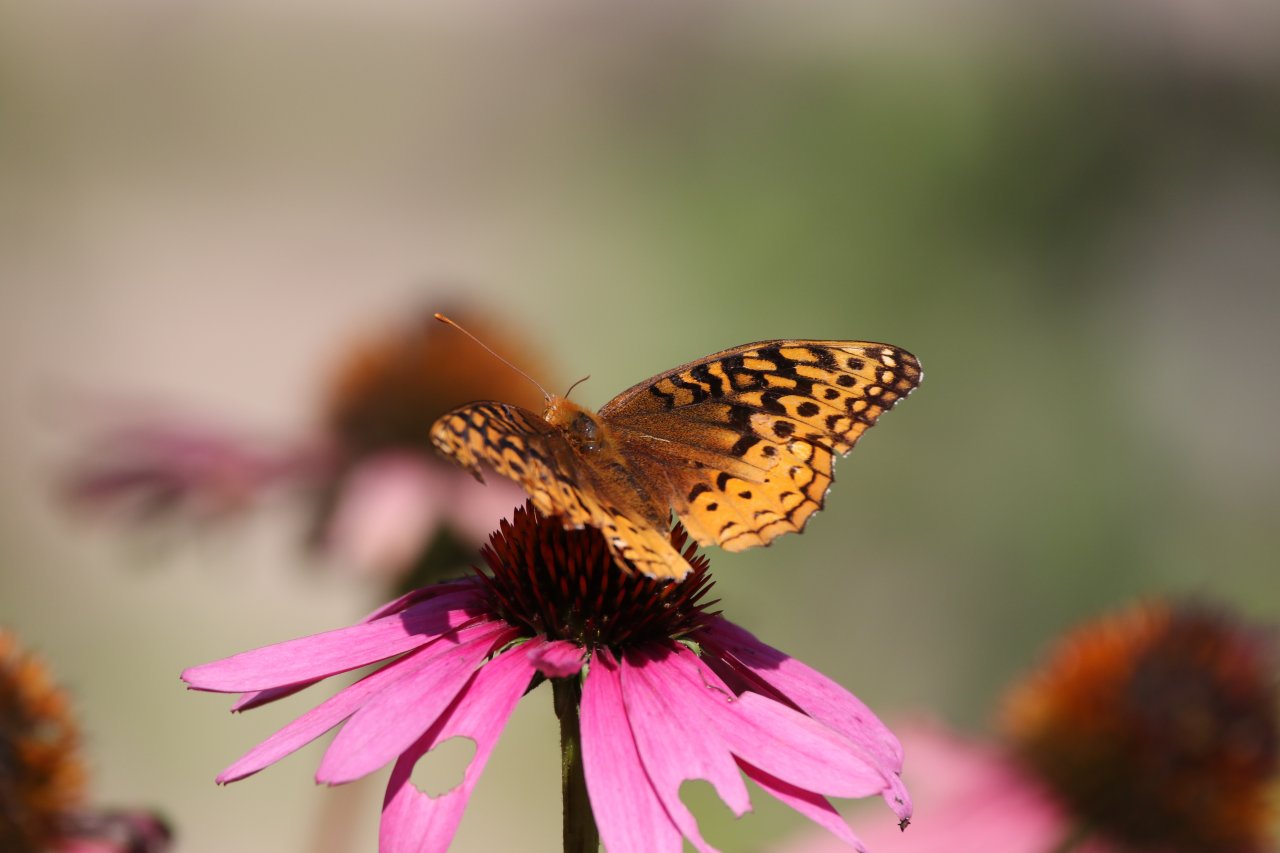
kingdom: Animalia
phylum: Arthropoda
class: Insecta
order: Lepidoptera
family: Nymphalidae
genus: Speyeria
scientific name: Speyeria cybele
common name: Great Spangled Fritillary
